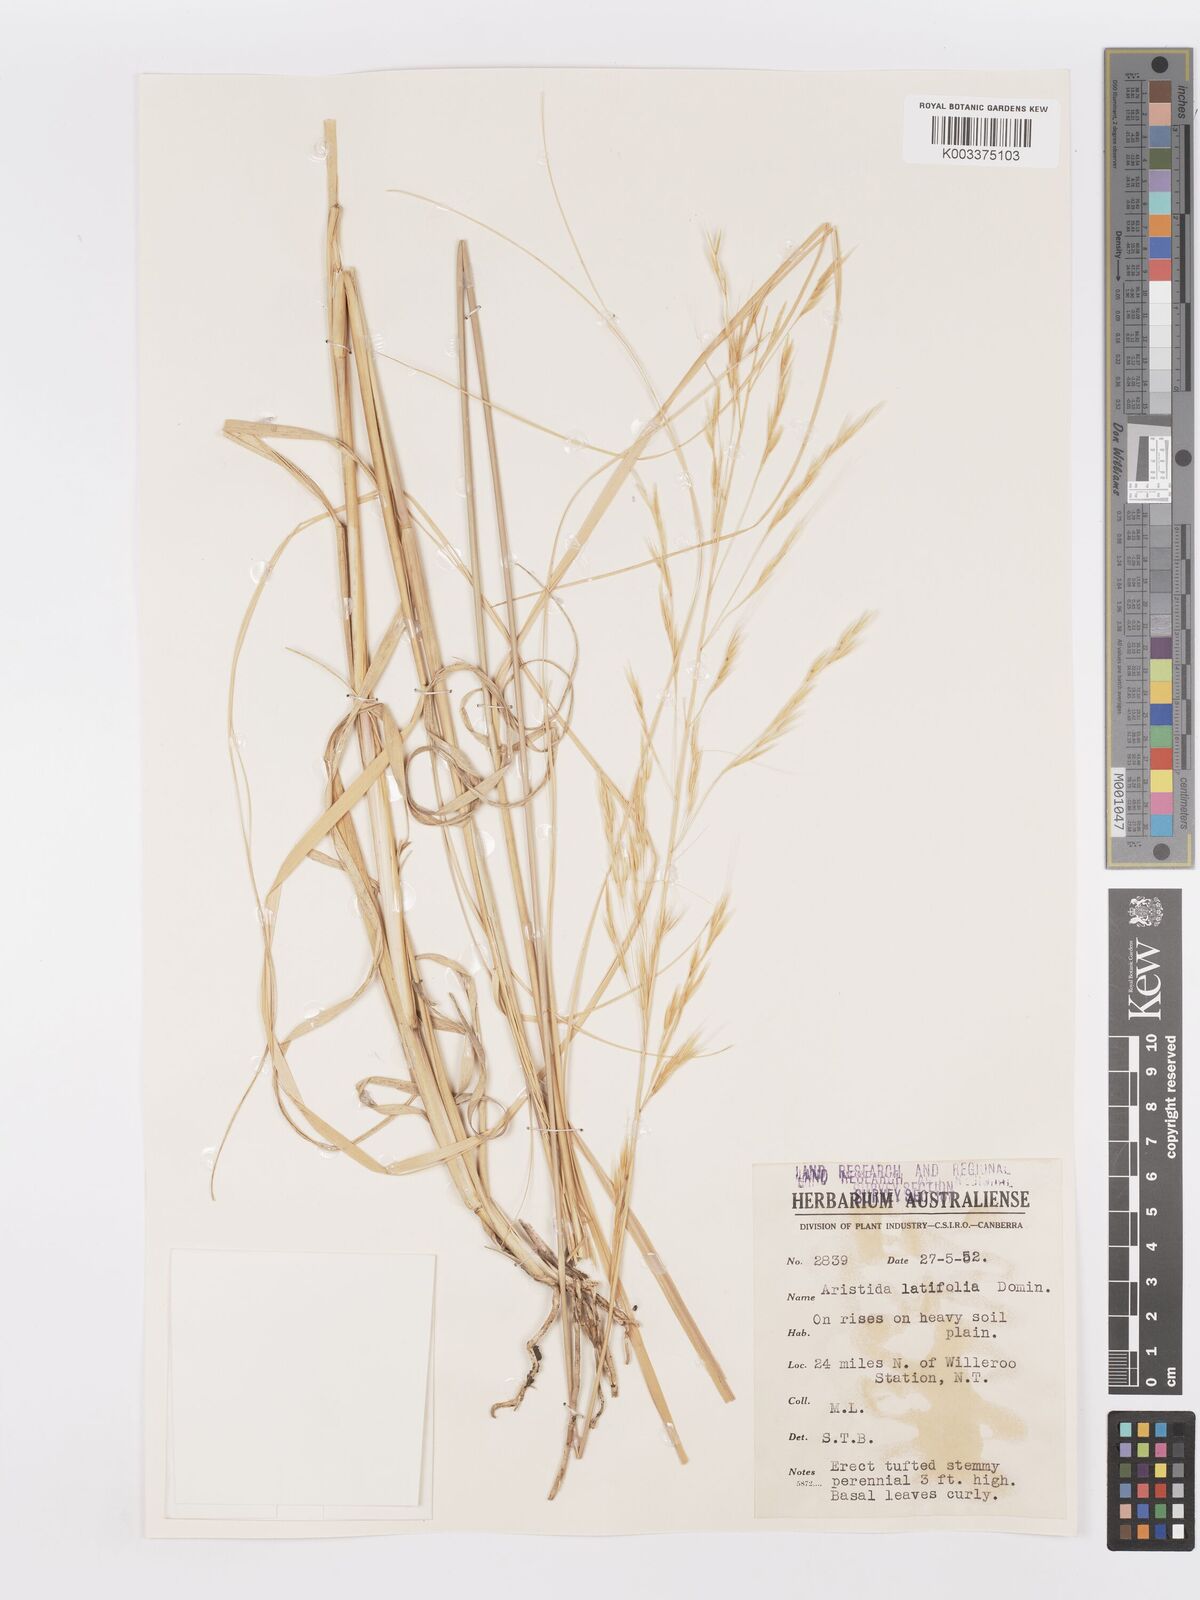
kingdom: Plantae
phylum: Tracheophyta
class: Liliopsida
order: Poales
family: Poaceae
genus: Aristida
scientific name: Aristida latifolia
